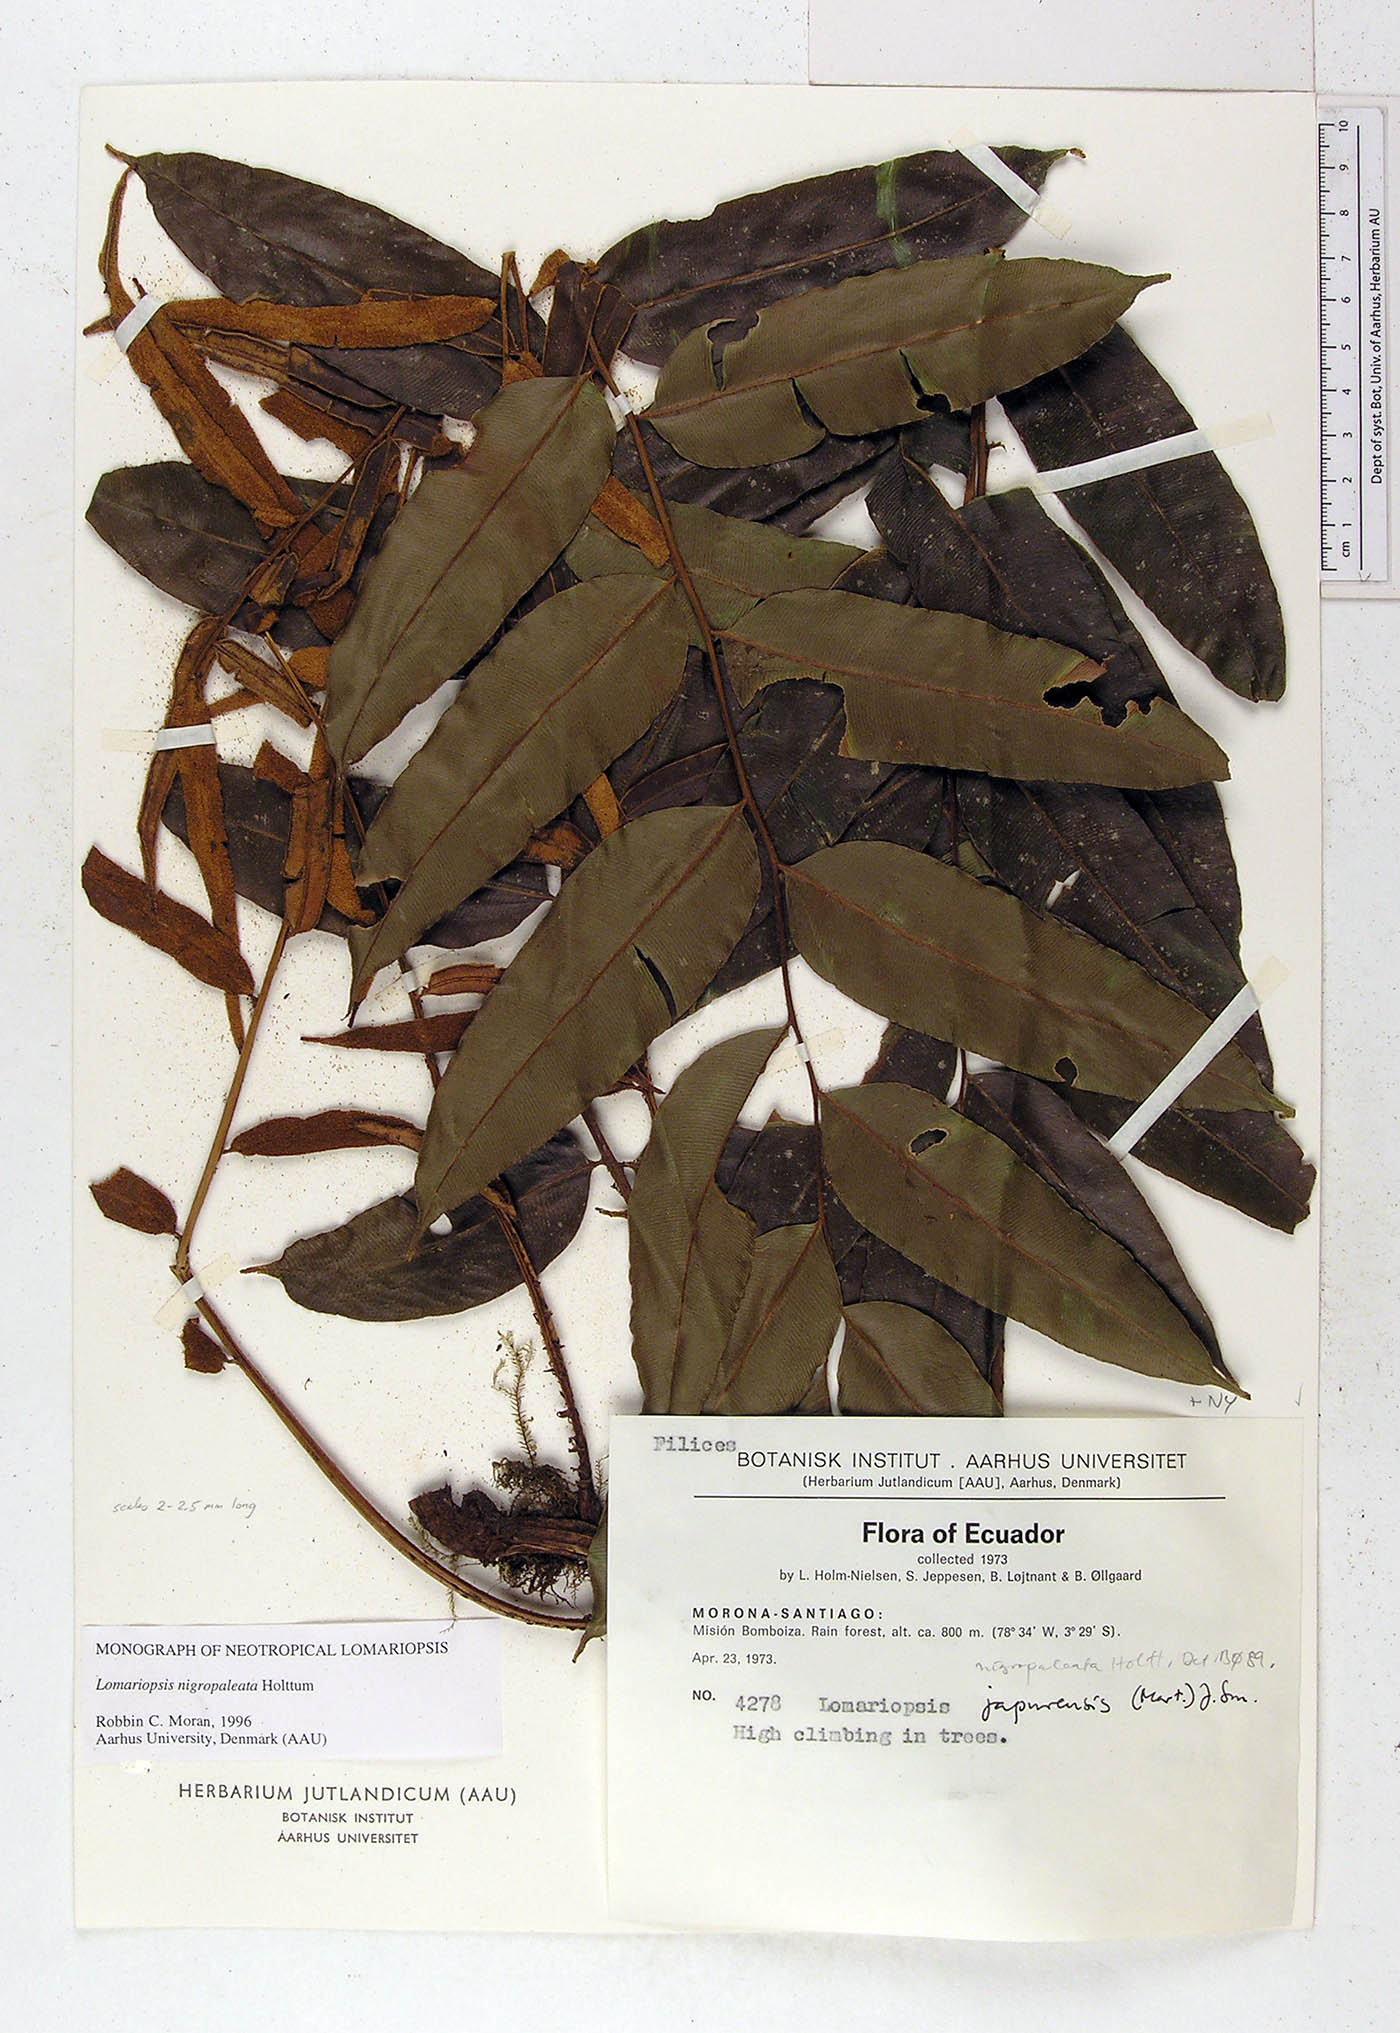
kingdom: Plantae
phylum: Tracheophyta
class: Polypodiopsida
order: Polypodiales
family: Lomariopsidaceae
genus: Lomariopsis
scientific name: Lomariopsis nigropaleata
